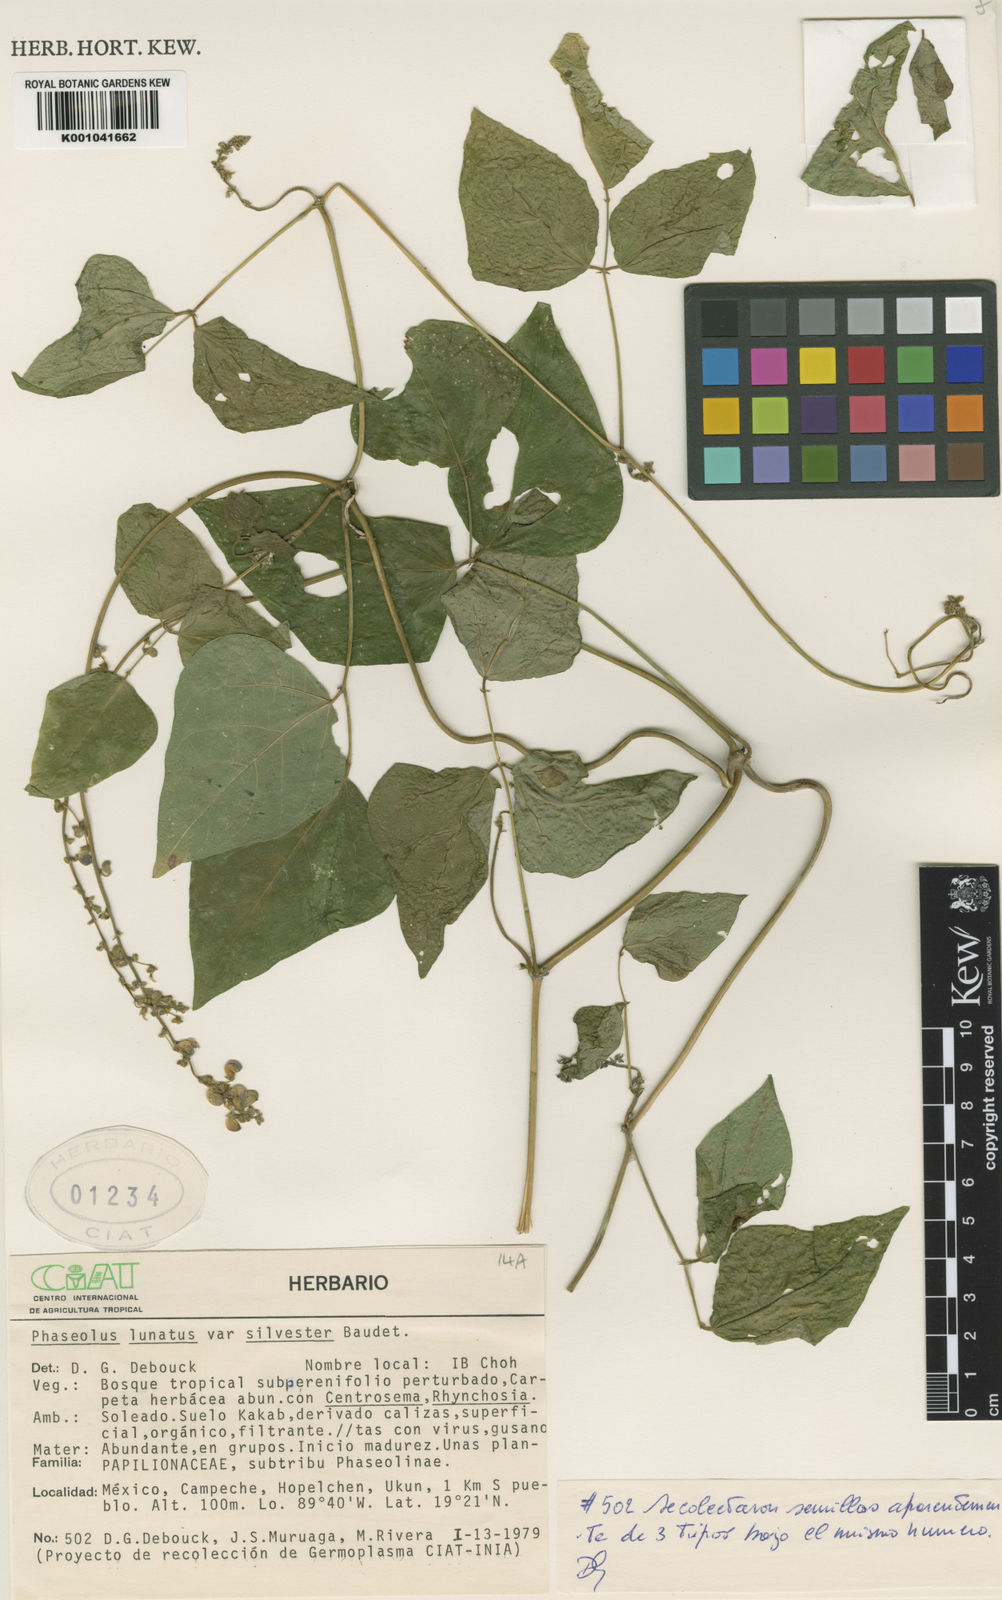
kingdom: Plantae
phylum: Tracheophyta
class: Magnoliopsida
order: Fabales
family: Fabaceae
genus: Phaseolus
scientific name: Phaseolus lunatus
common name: Sieva bean
